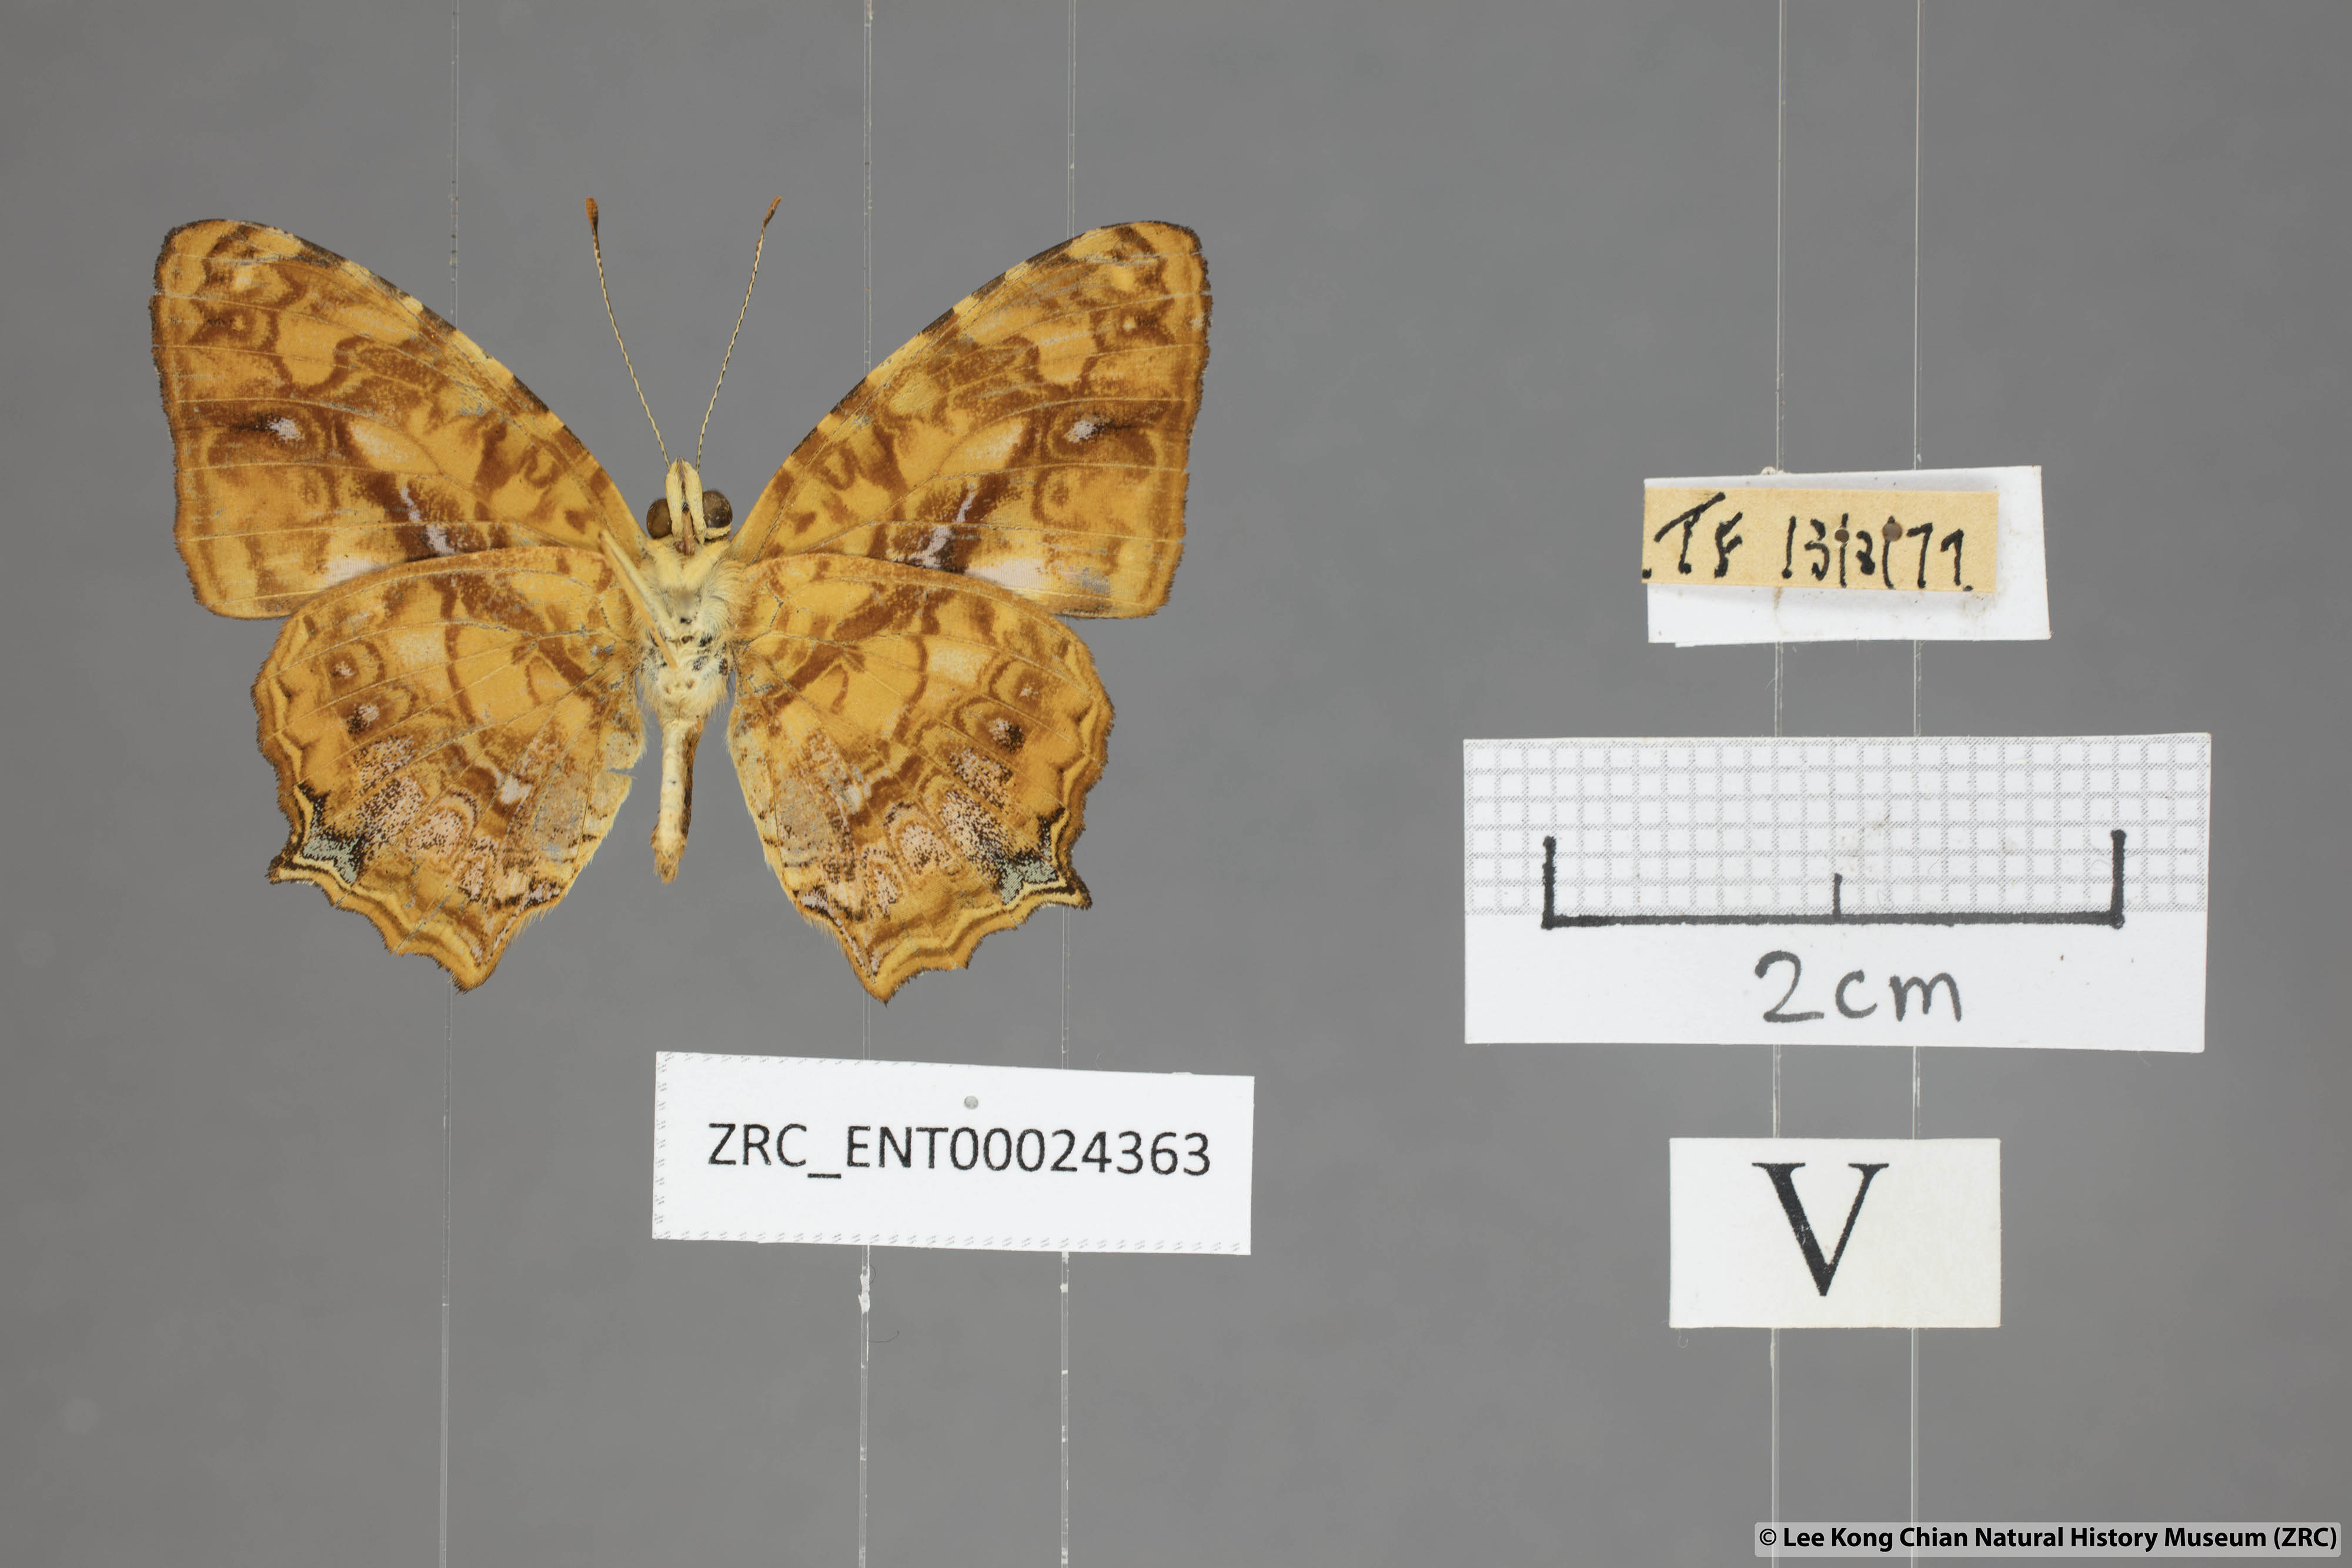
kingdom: Animalia
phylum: Arthropoda
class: Insecta
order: Lepidoptera
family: Nymphalidae
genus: Symbrenthia
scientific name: Symbrenthia hypselis
